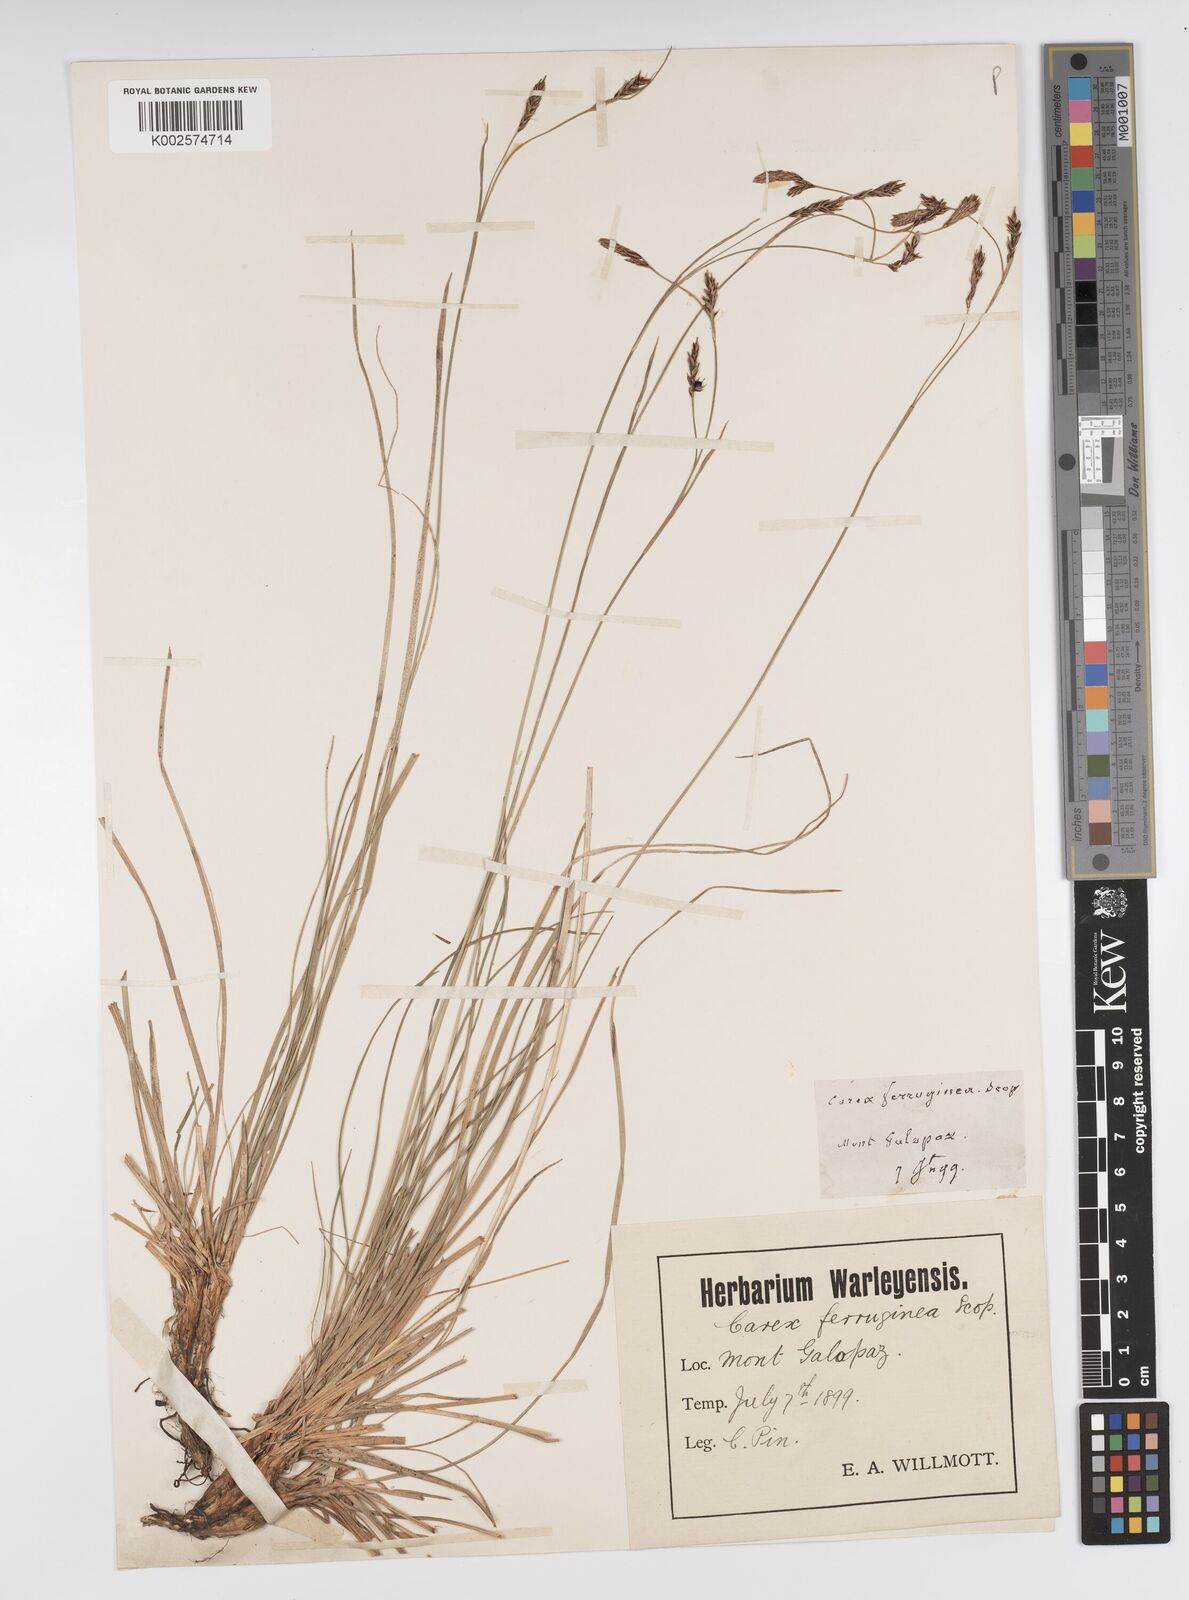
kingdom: Plantae
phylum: Tracheophyta
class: Liliopsida
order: Poales
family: Cyperaceae
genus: Carex
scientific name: Carex ferruginea
